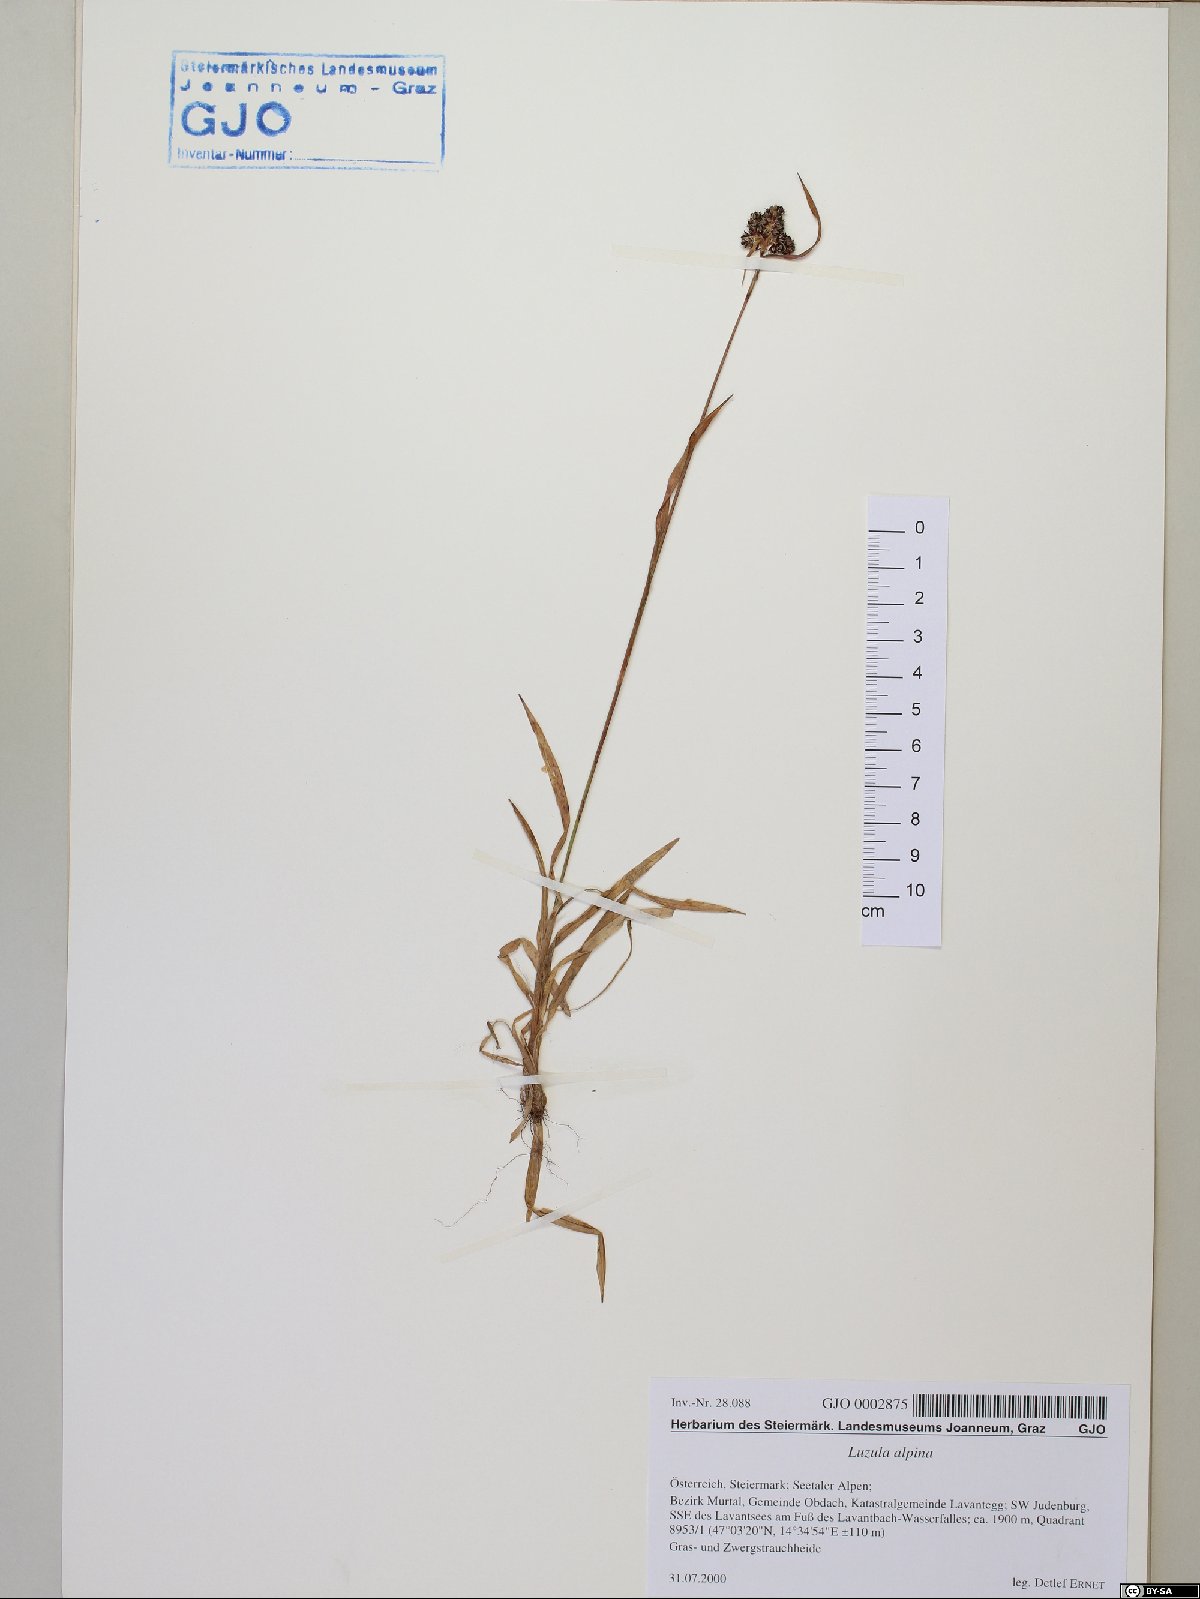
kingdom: Plantae
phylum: Tracheophyta
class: Liliopsida
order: Poales
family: Juncaceae
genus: Luzula
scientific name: Luzula alpina
